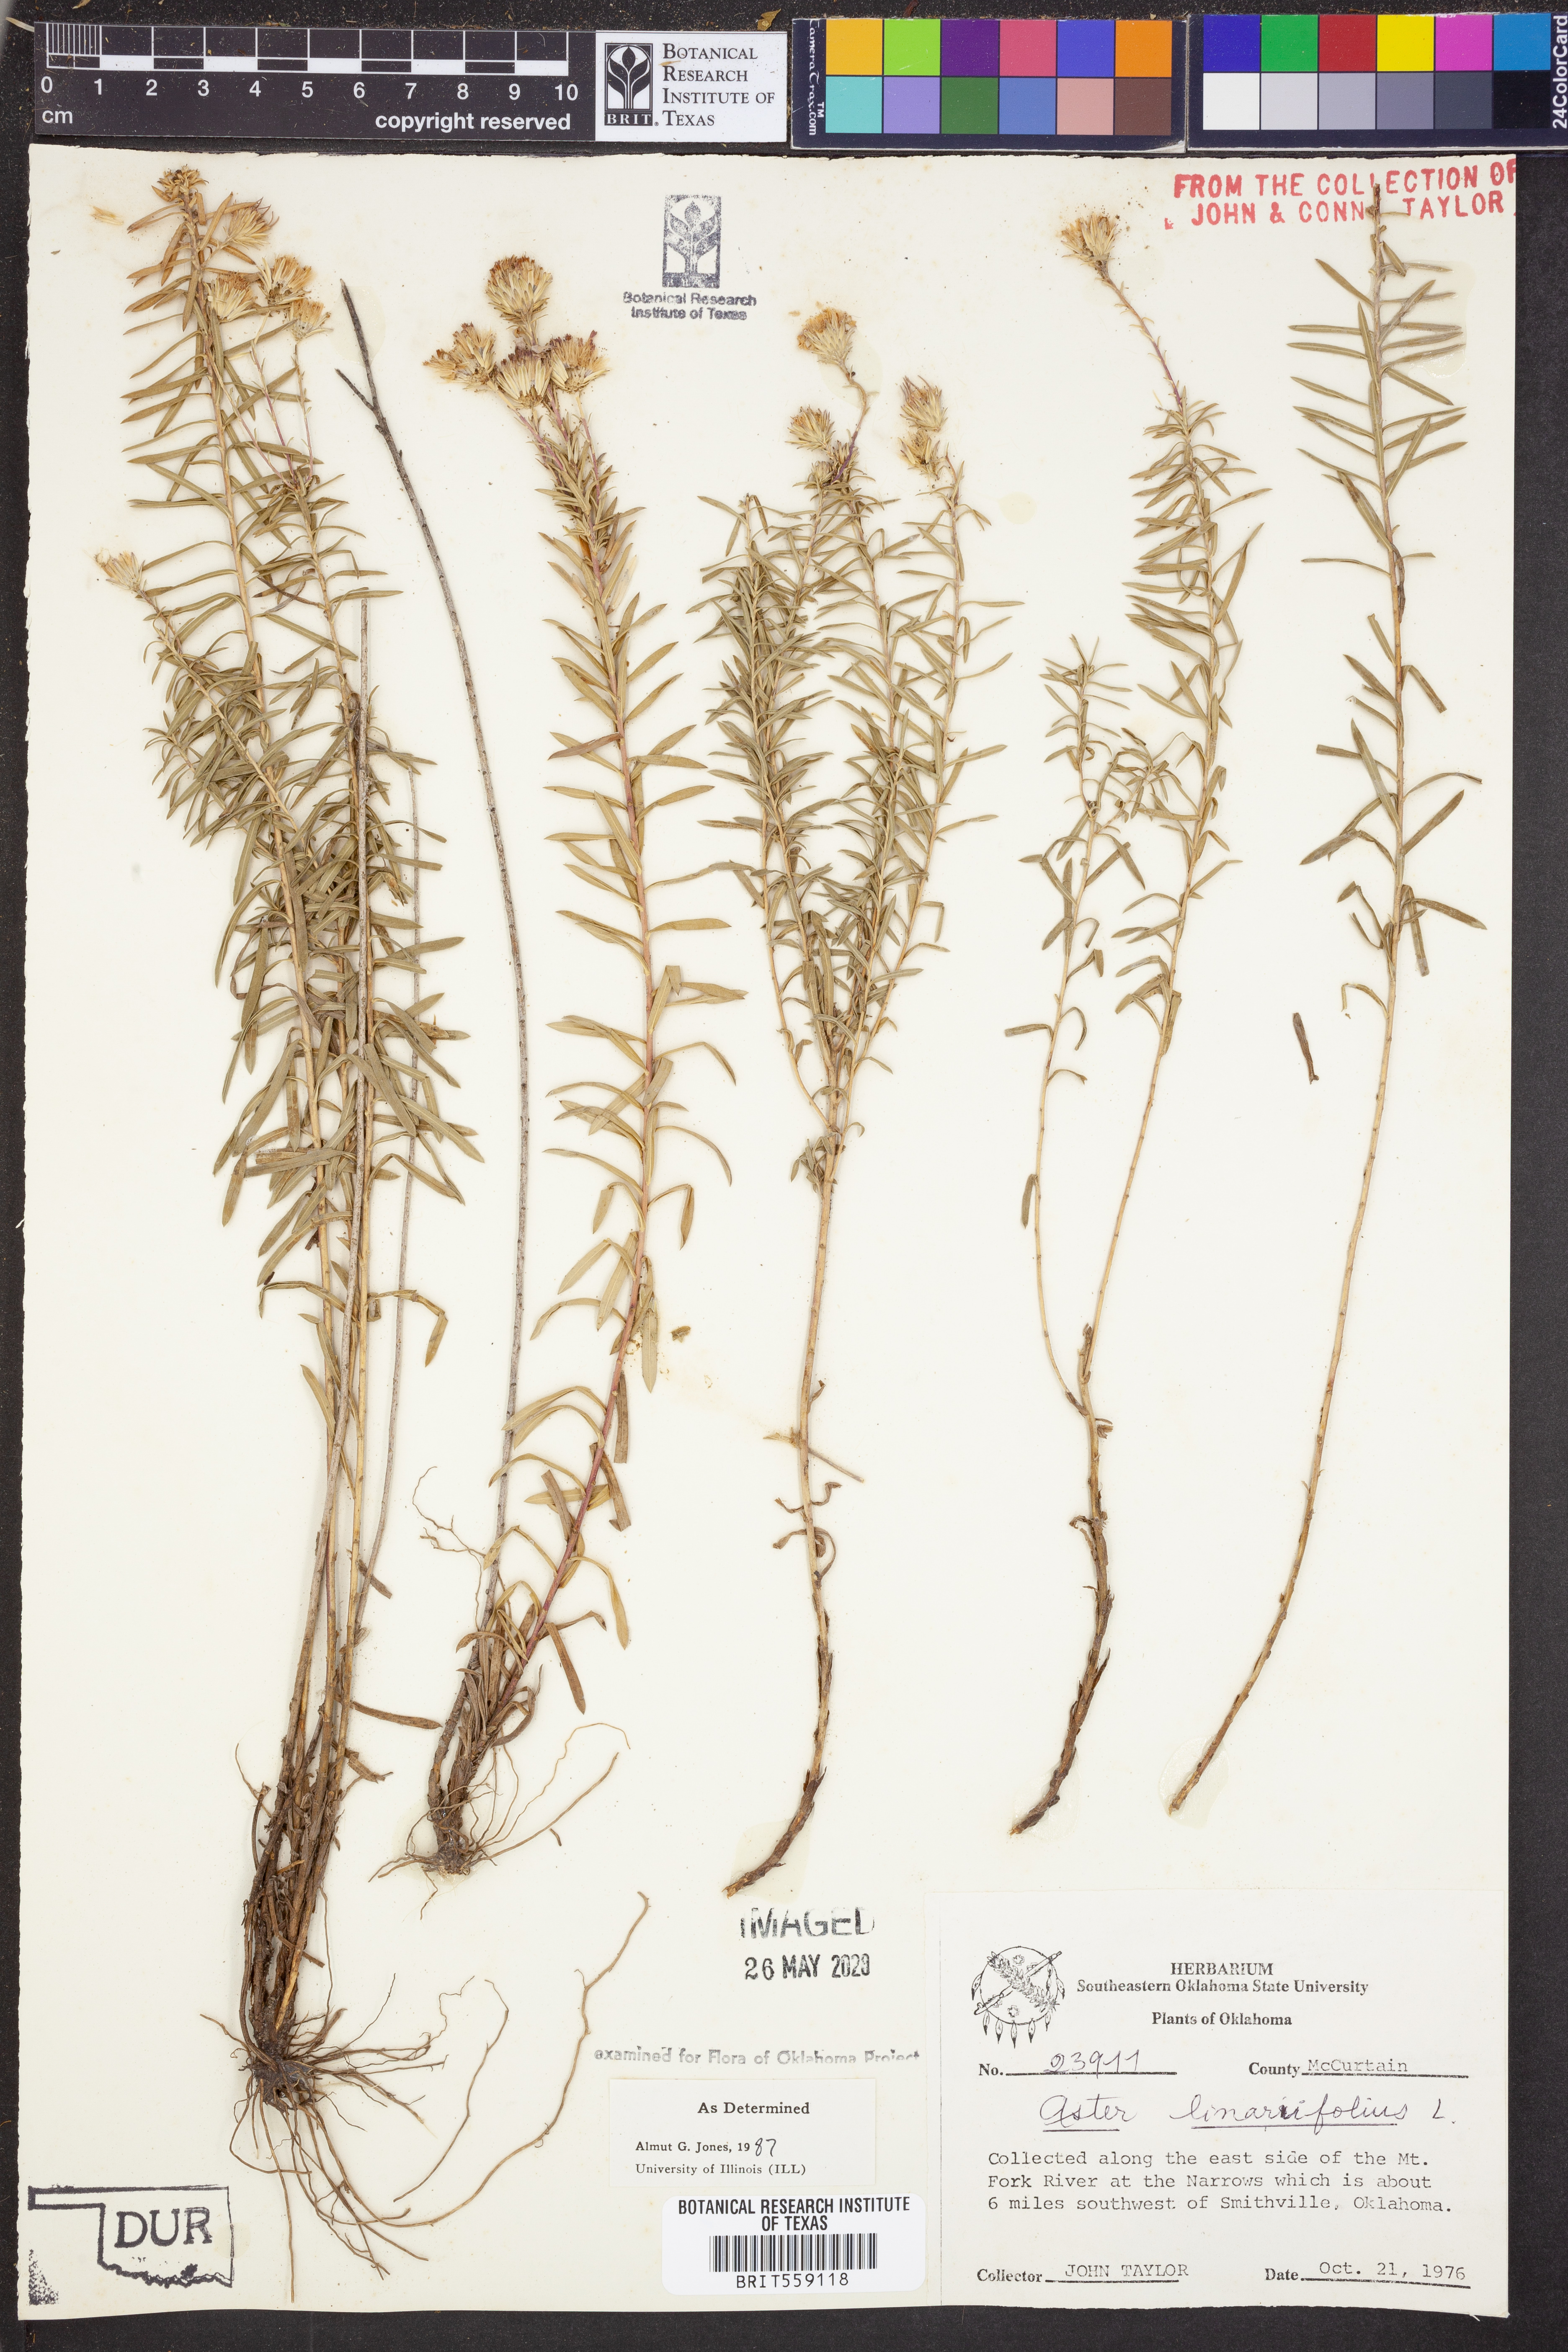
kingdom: Plantae
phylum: Tracheophyta
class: Magnoliopsida
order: Asterales
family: Asteraceae
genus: Ionactis
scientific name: Ionactis linariifolia
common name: Flax-leaf aster
